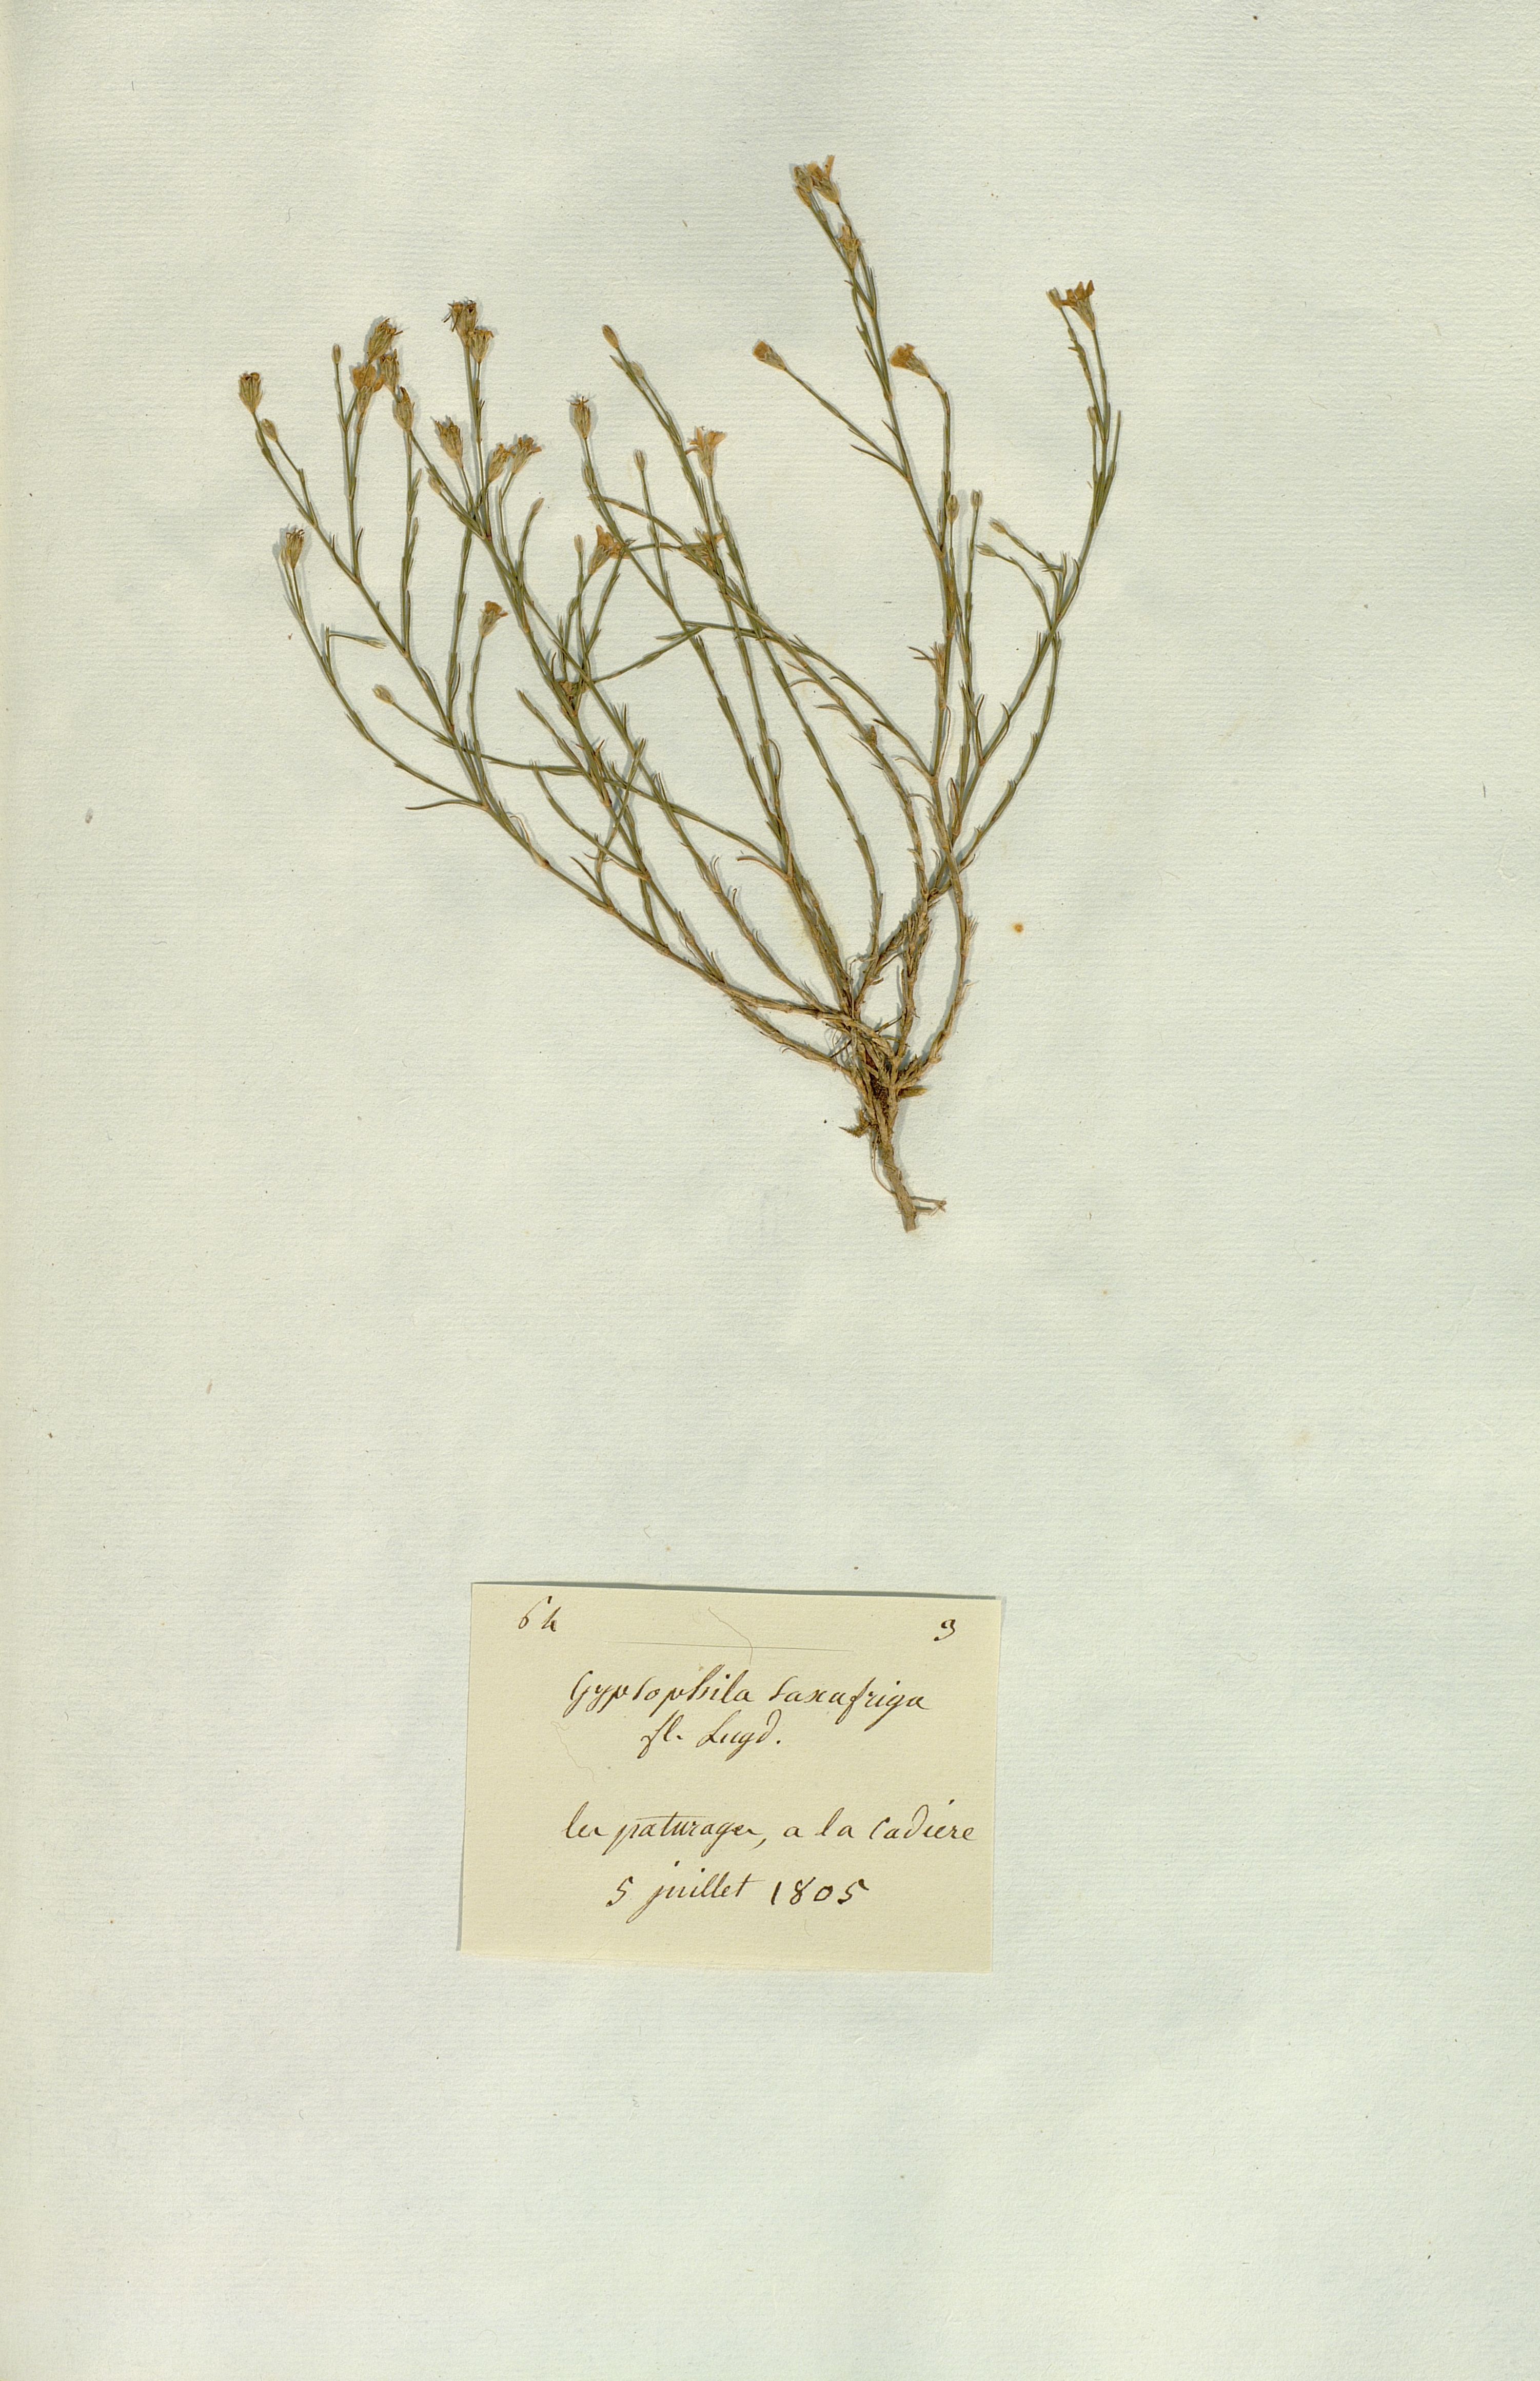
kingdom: Plantae
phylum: Tracheophyta
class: Magnoliopsida
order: Caryophyllales
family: Caryophyllaceae
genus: Petrorhagia
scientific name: Petrorhagia saxifraga
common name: Tunicflower
